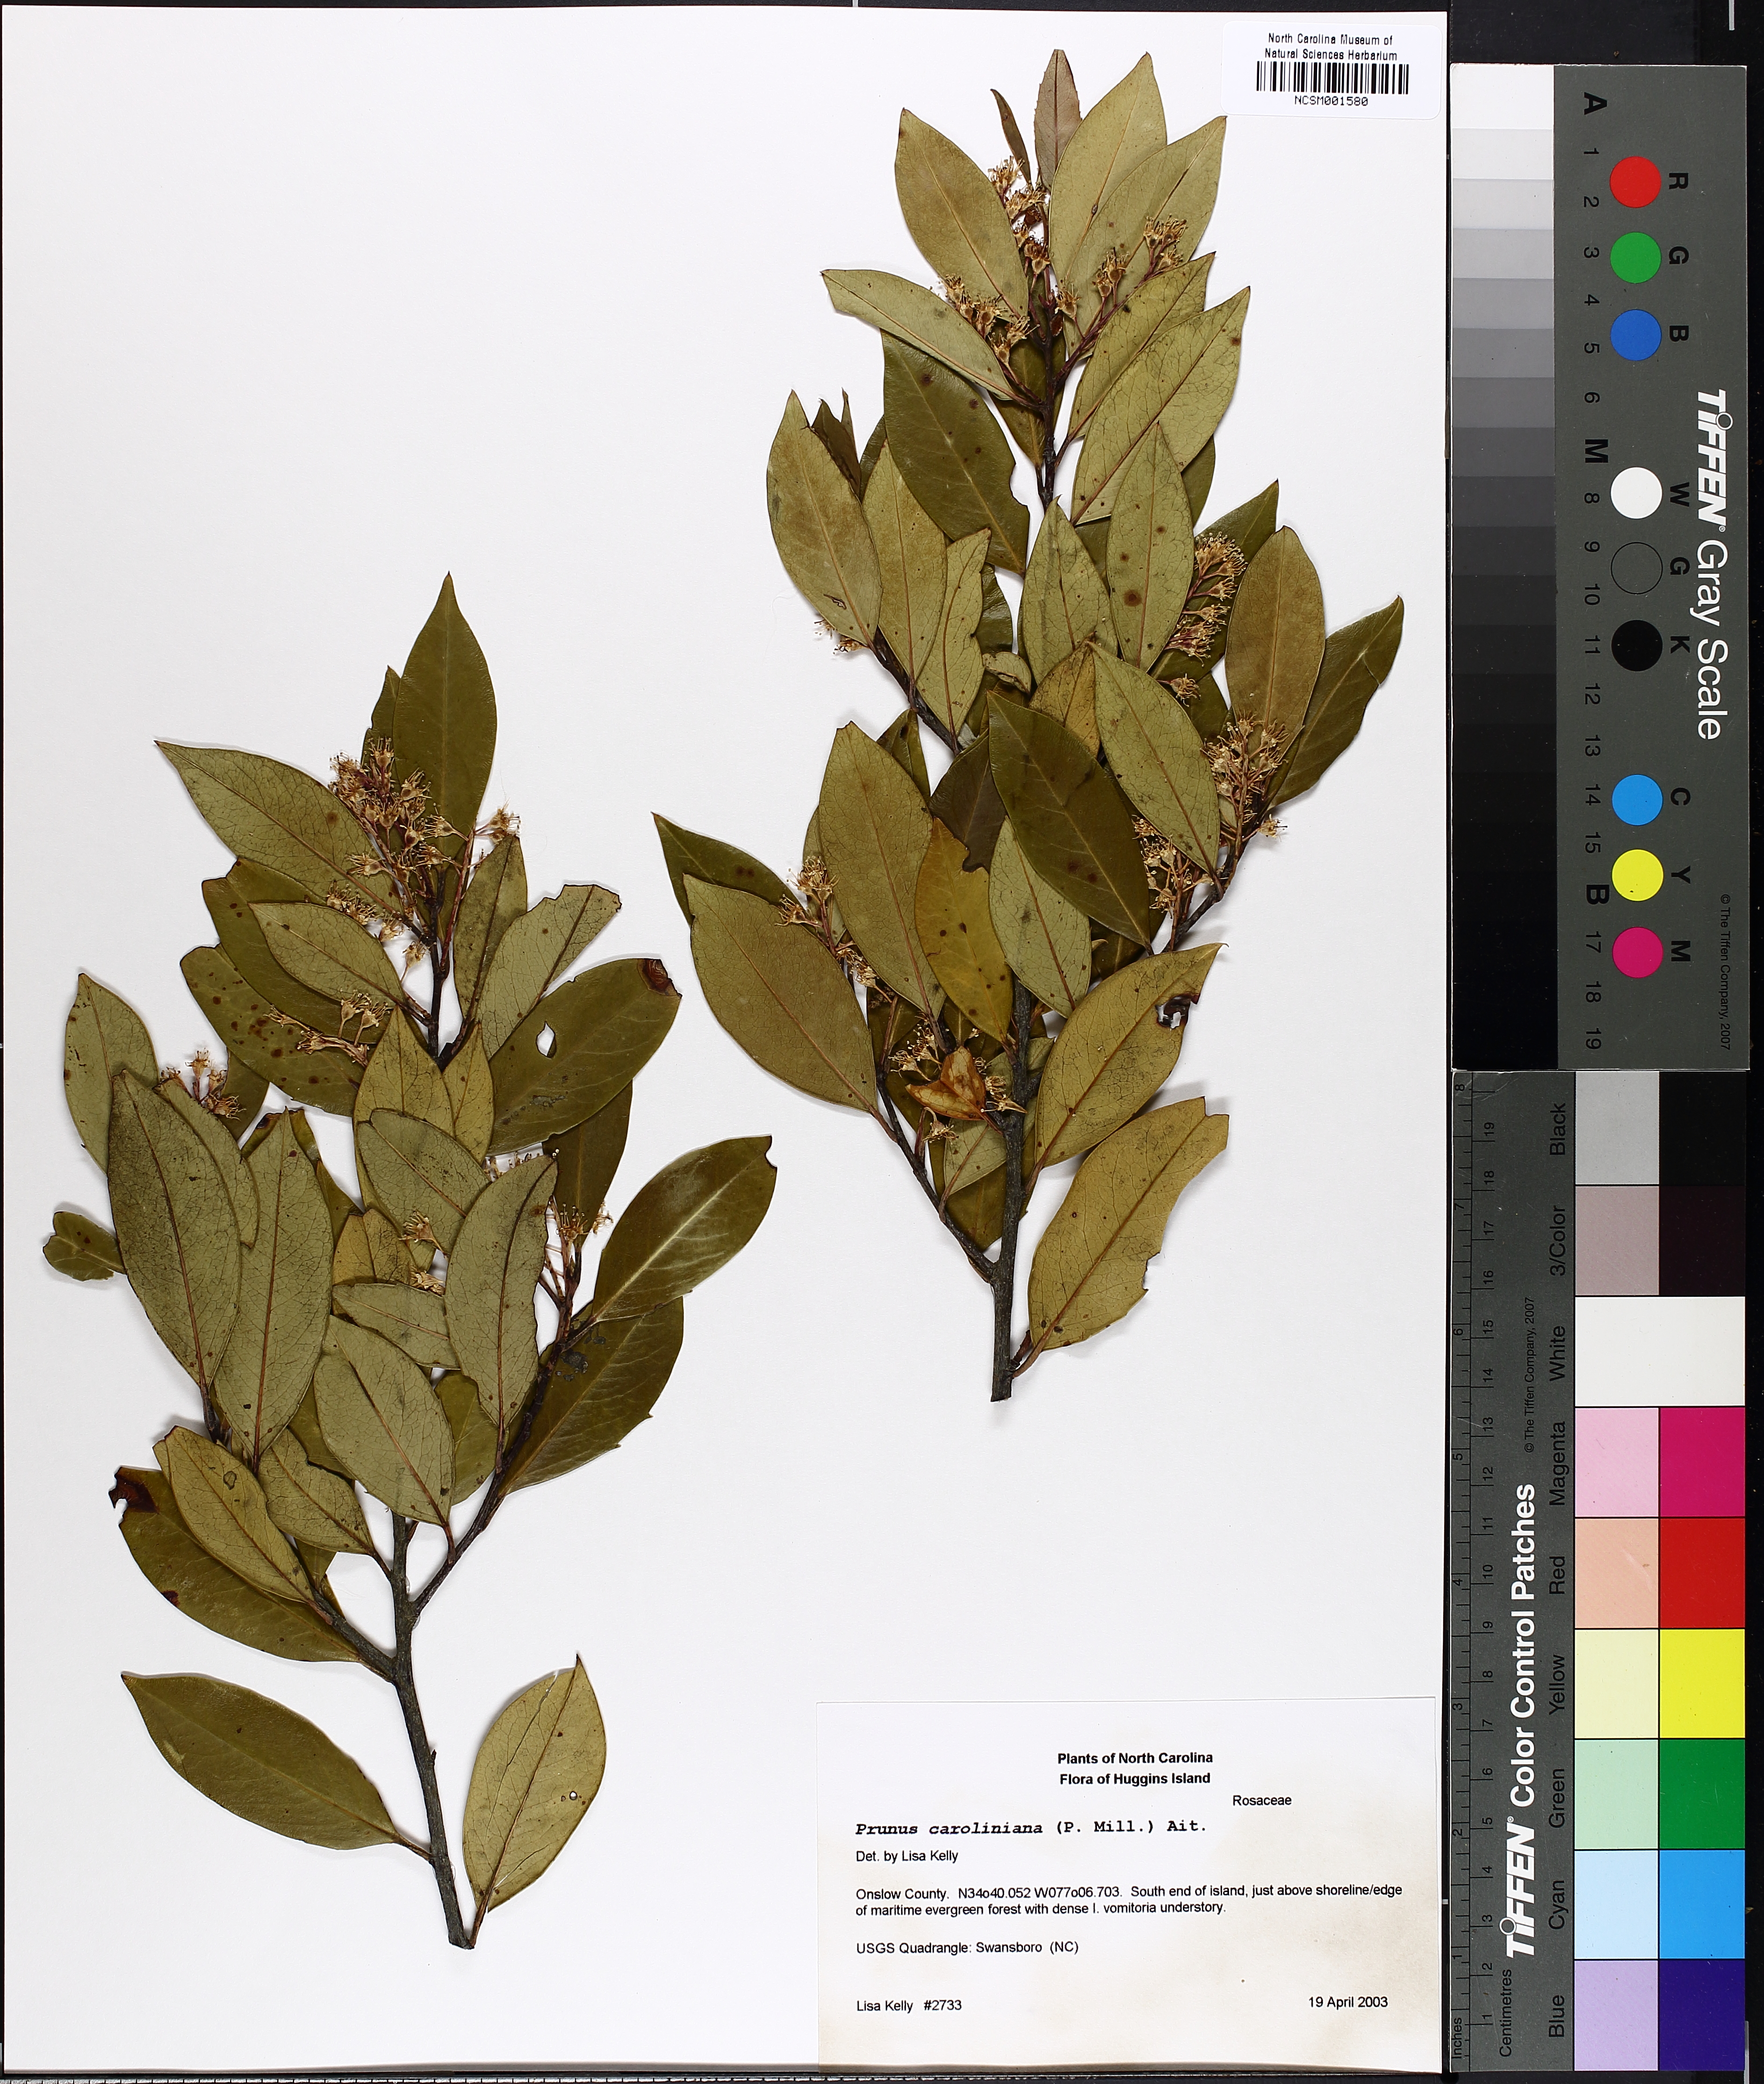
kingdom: Plantae
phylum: Tracheophyta
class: Magnoliopsida
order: Rosales
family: Rosaceae
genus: Prunus
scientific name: Prunus caroliniana
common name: Carolina laurel cherry
